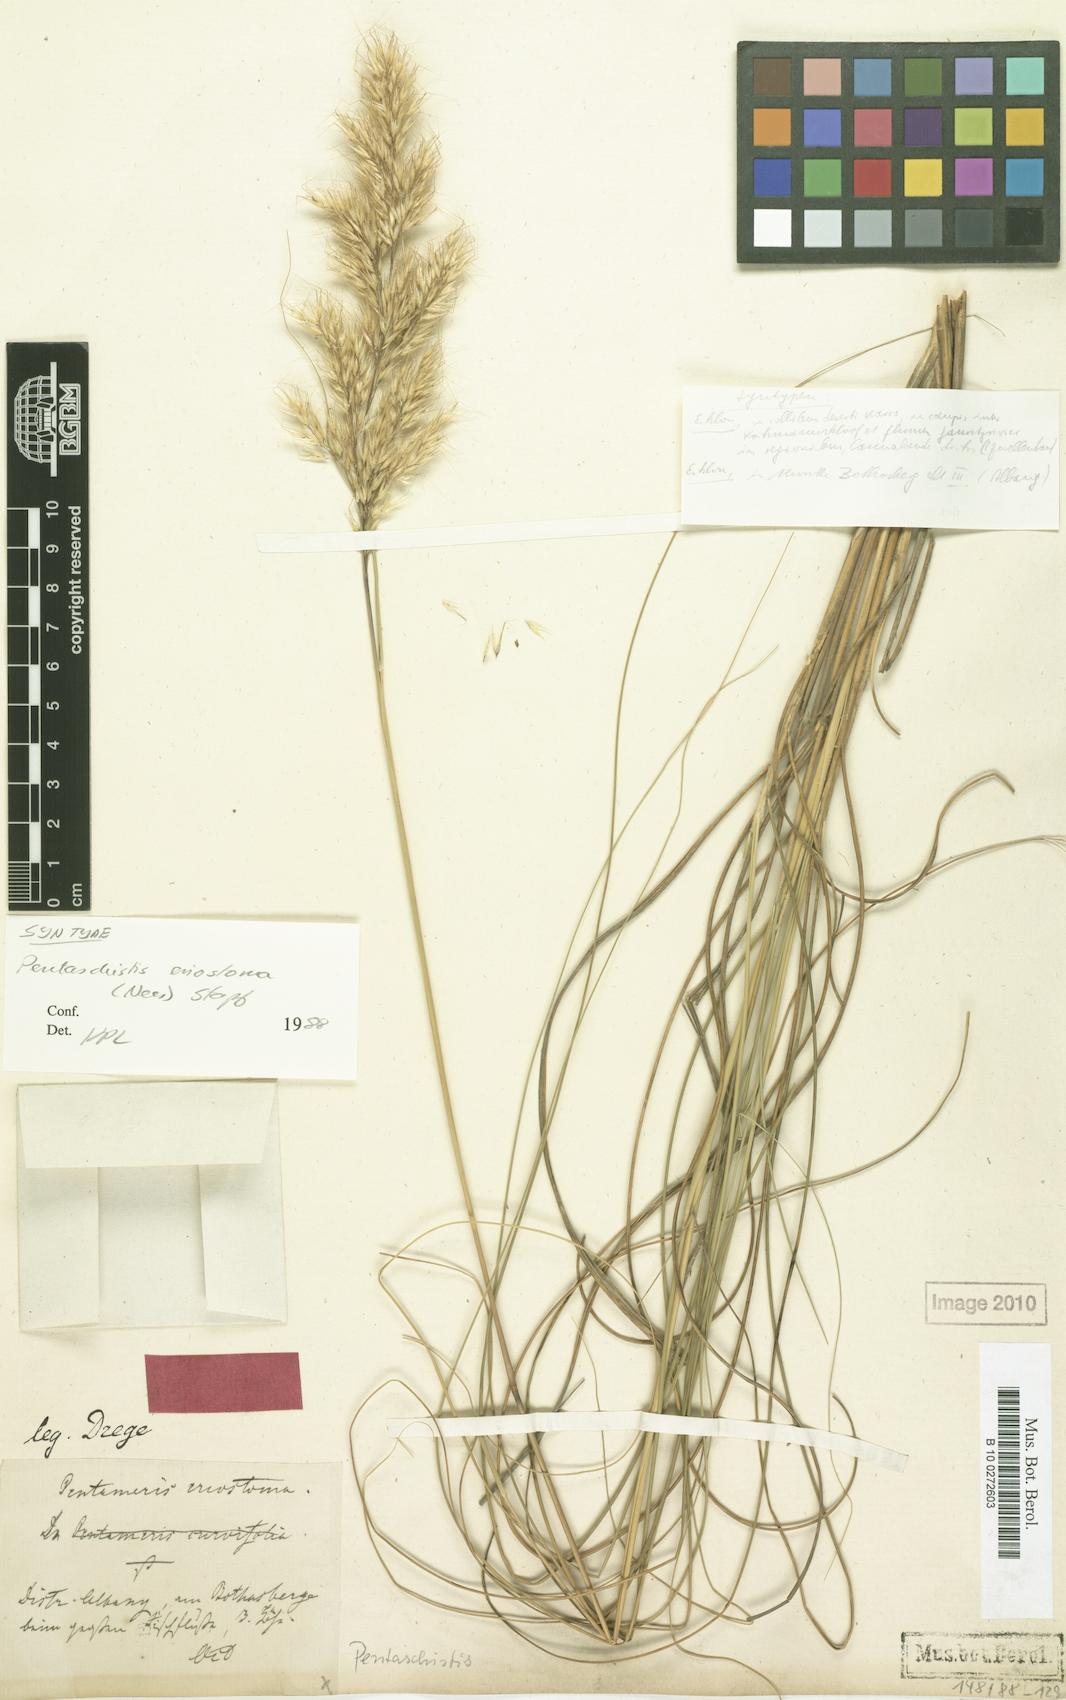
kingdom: Plantae
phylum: Tracheophyta
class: Liliopsida
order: Poales
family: Poaceae
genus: Pentameris
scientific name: Pentameris eriostoma
